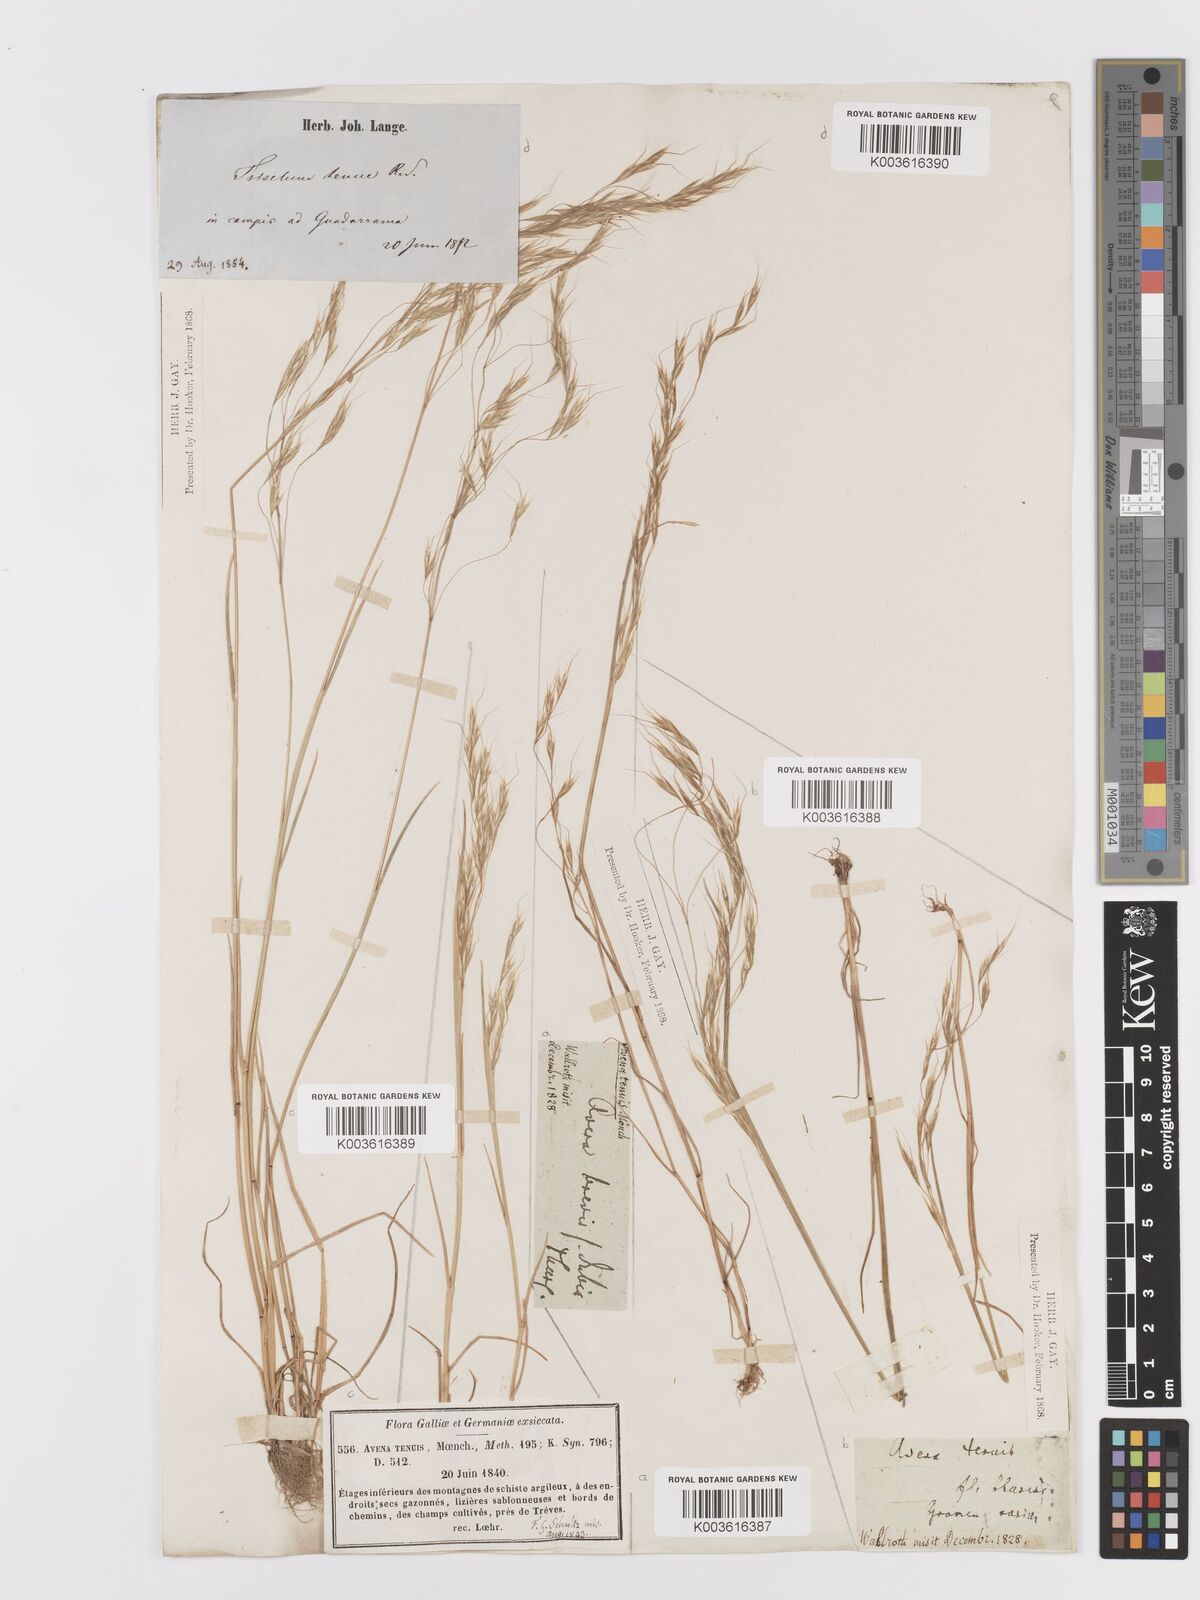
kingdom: Plantae
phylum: Tracheophyta
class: Liliopsida
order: Poales
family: Poaceae
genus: Ventenata
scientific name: Ventenata dubia
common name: North africa grass
